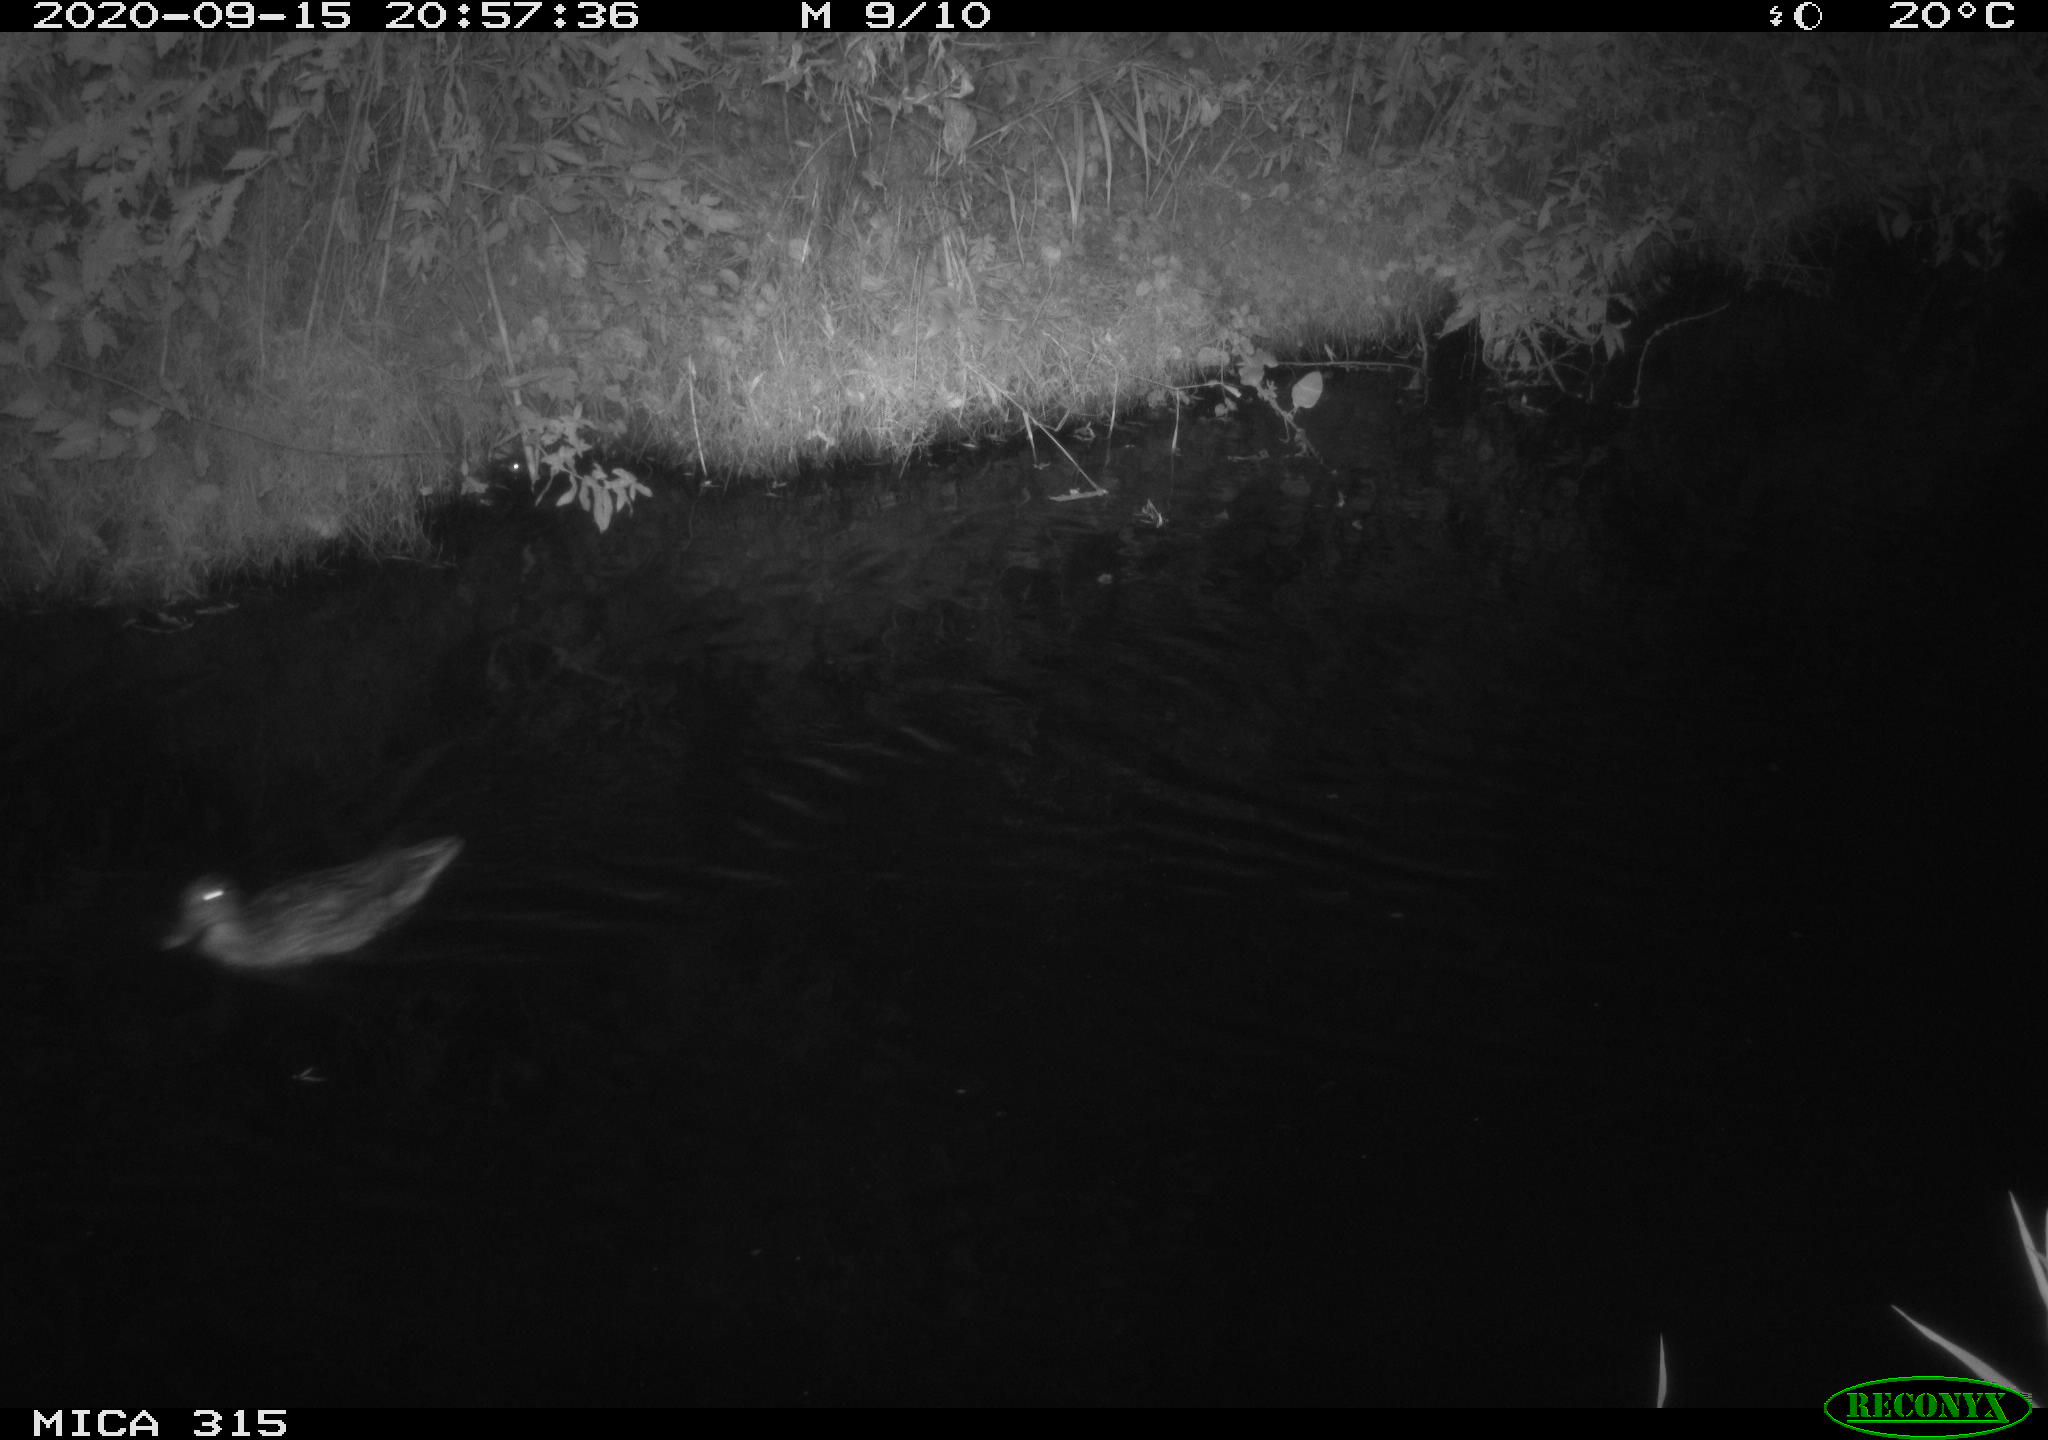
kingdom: Animalia
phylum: Chordata
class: Aves
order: Anseriformes
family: Anatidae
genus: Anas
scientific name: Anas platyrhynchos
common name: Mallard
